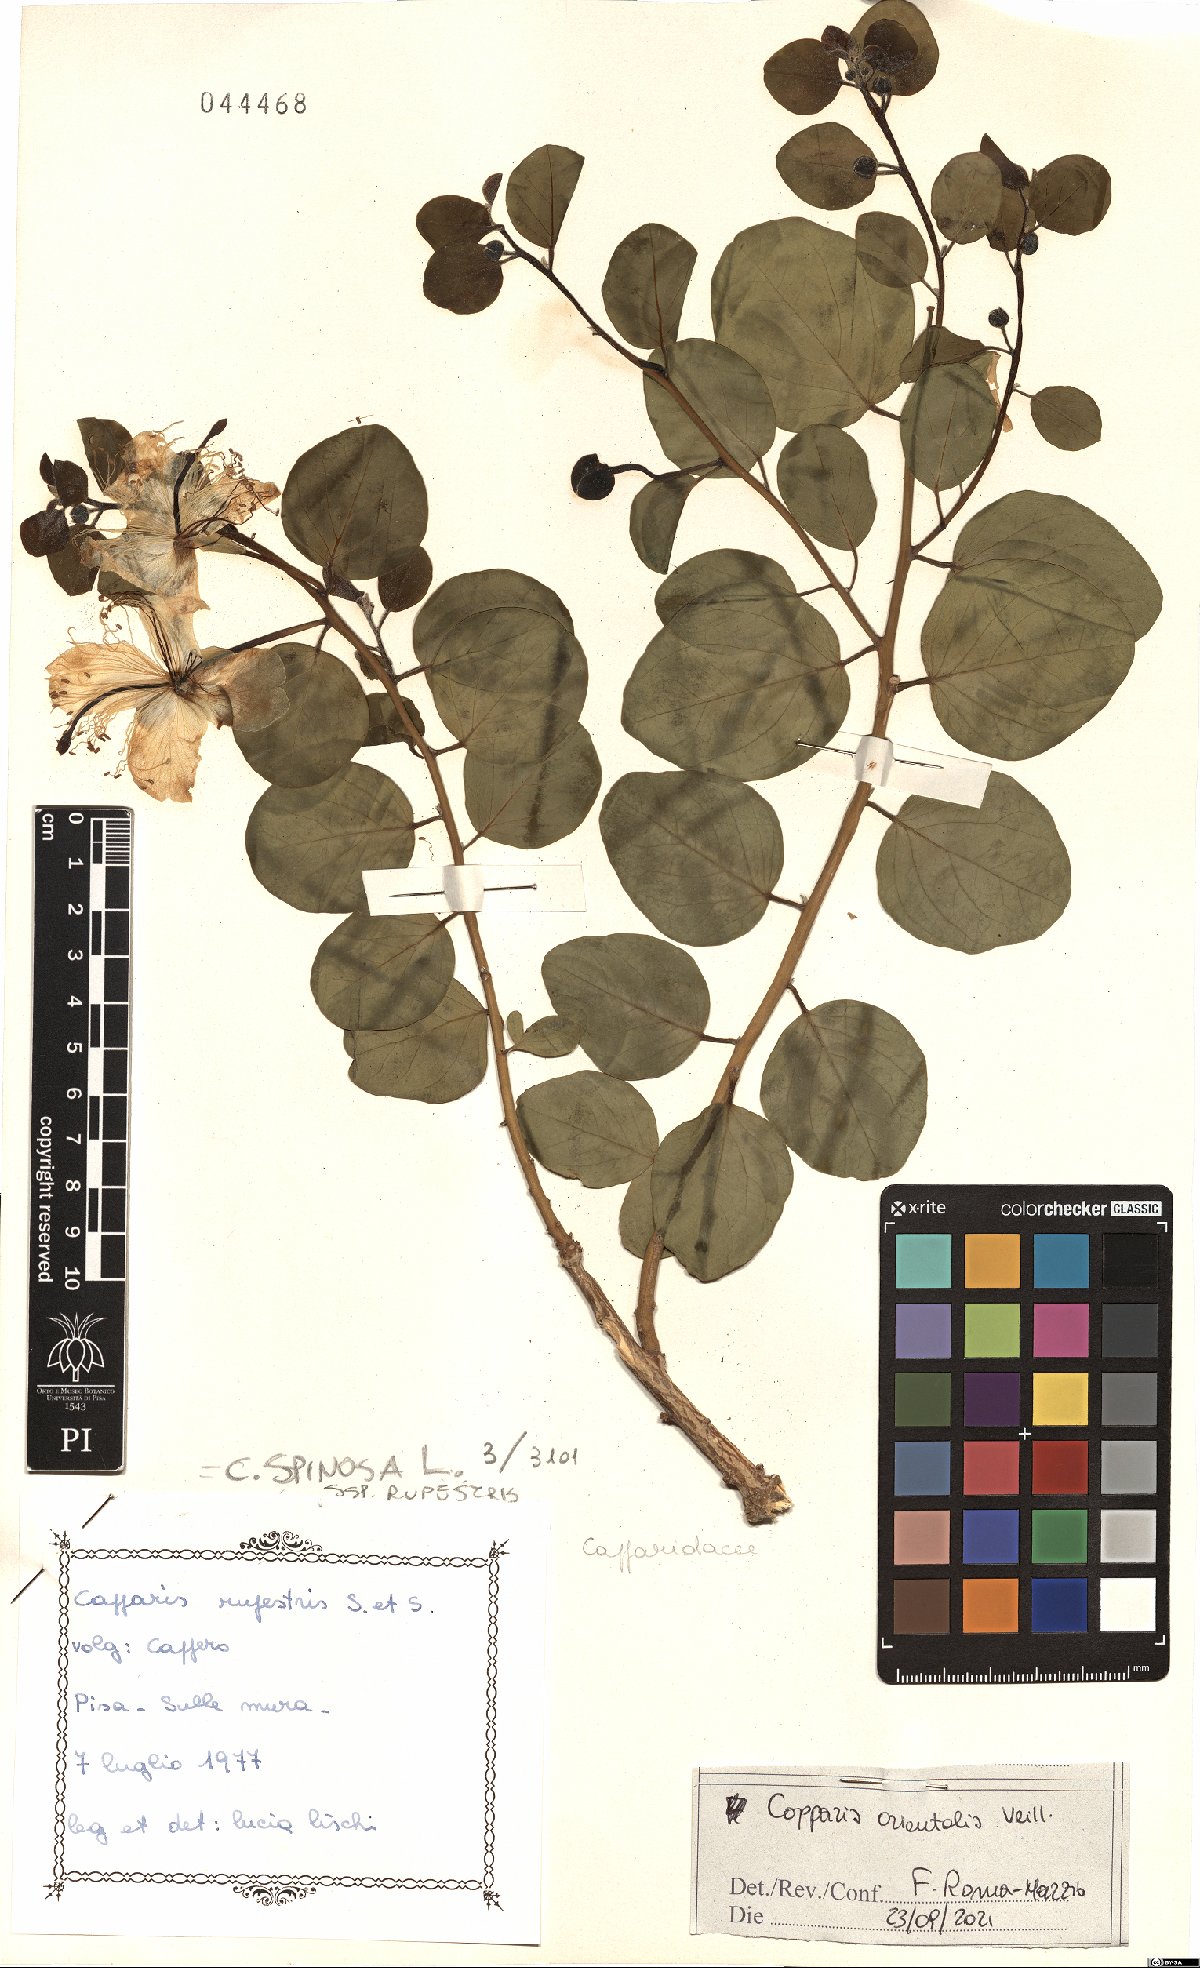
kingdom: Plantae
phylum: Tracheophyta
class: Magnoliopsida
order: Brassicales
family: Capparaceae
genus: Capparis
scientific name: Capparis spinosa
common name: Caper
